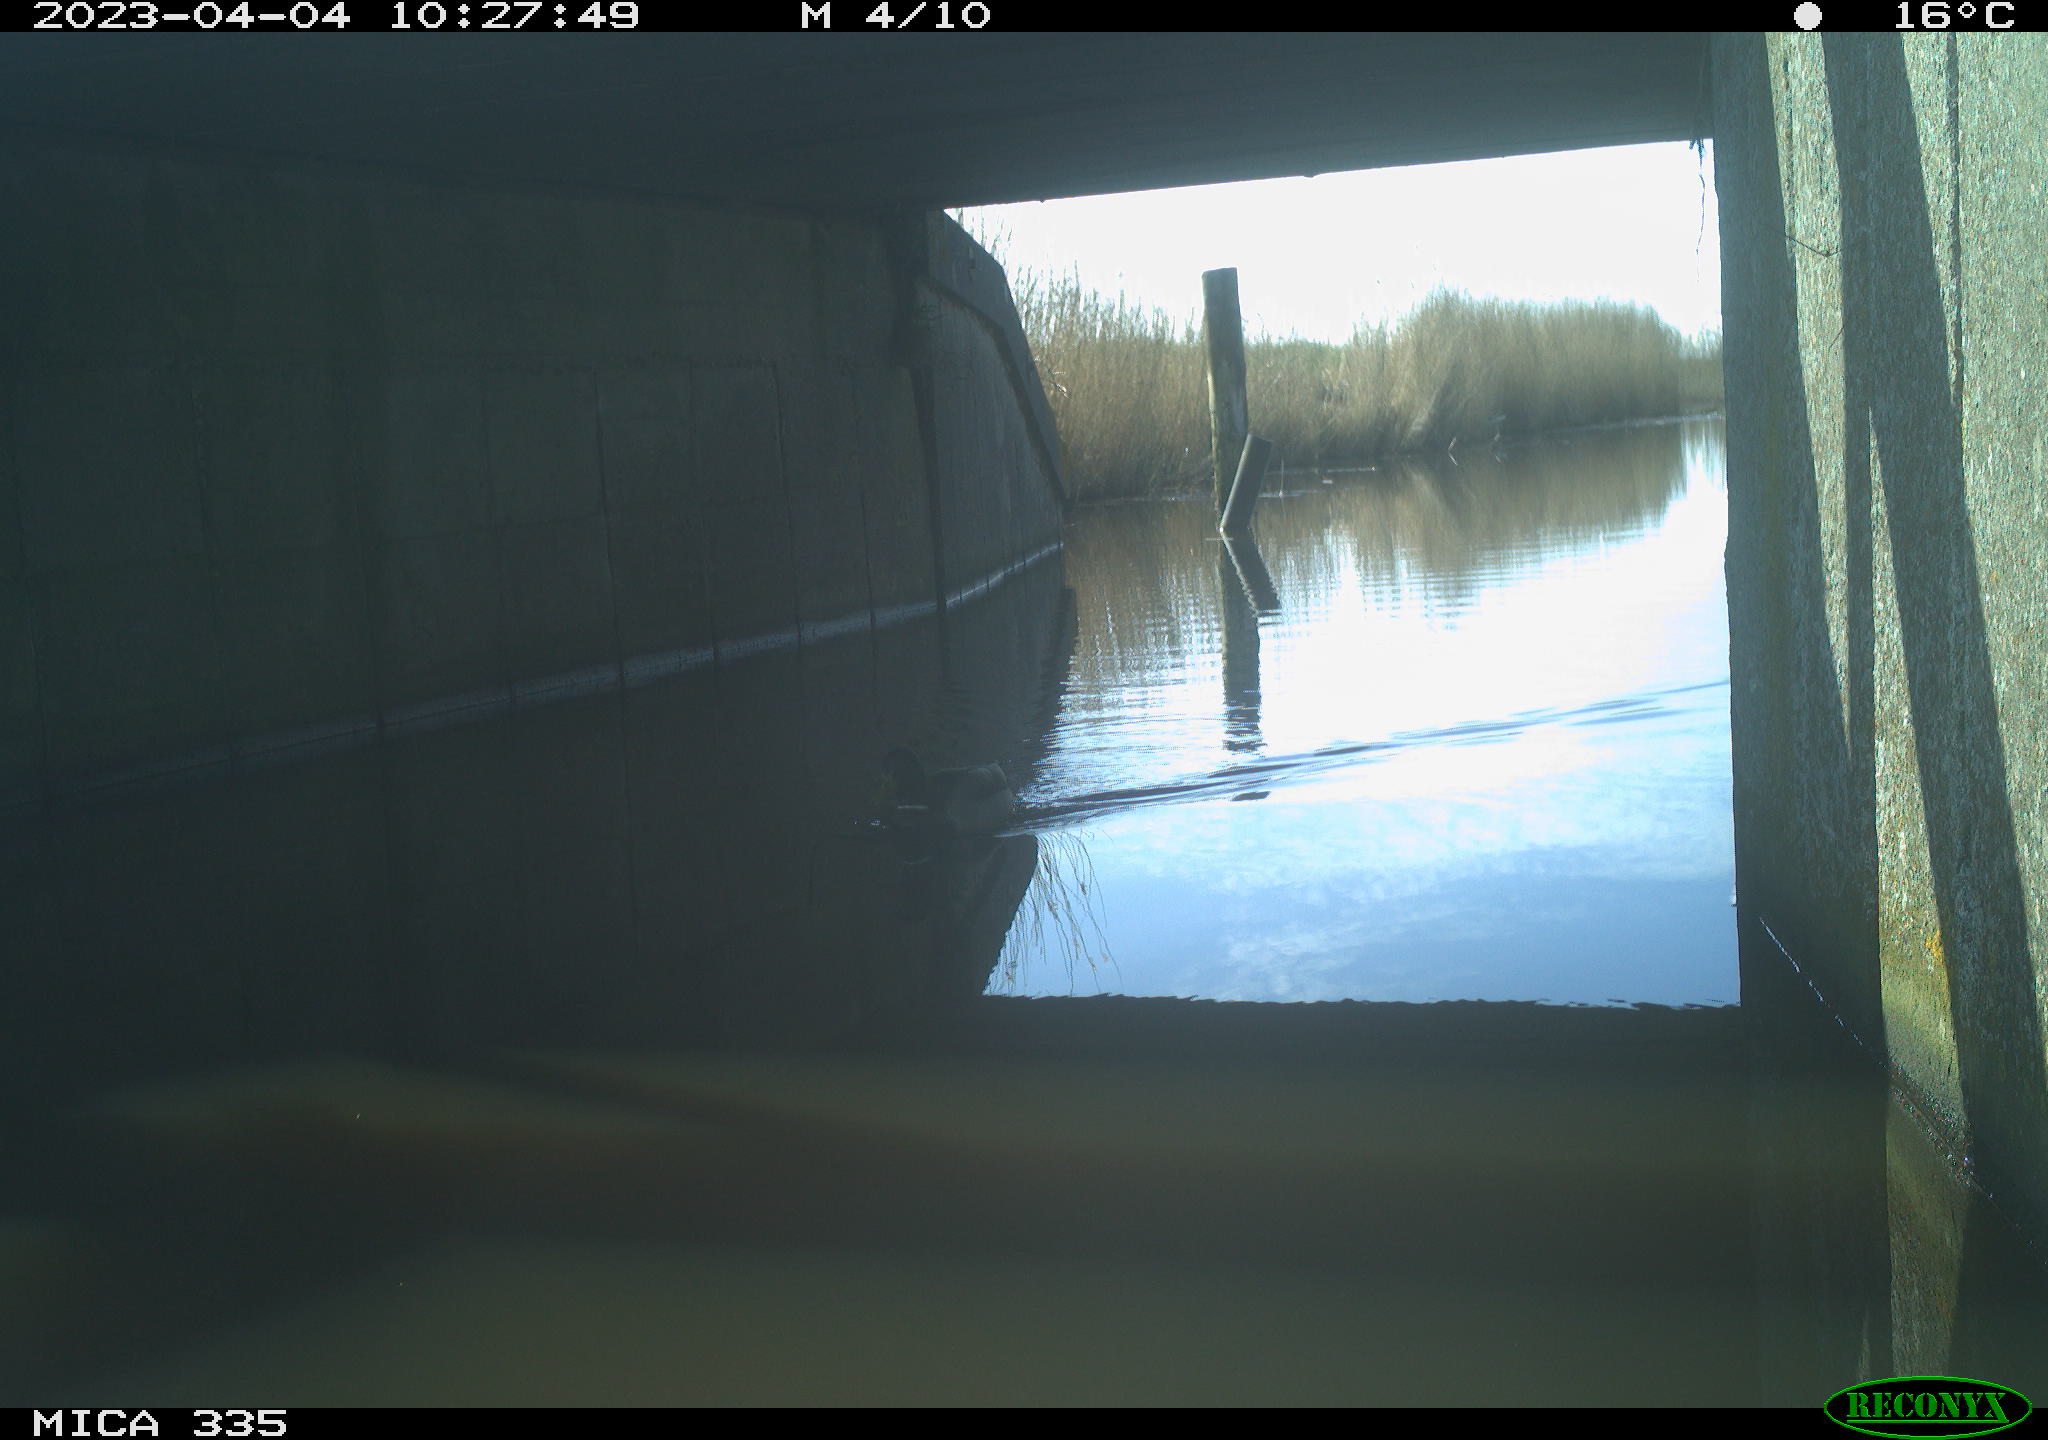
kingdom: Animalia
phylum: Chordata
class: Aves
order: Anseriformes
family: Anatidae
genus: Anas
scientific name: Anas
